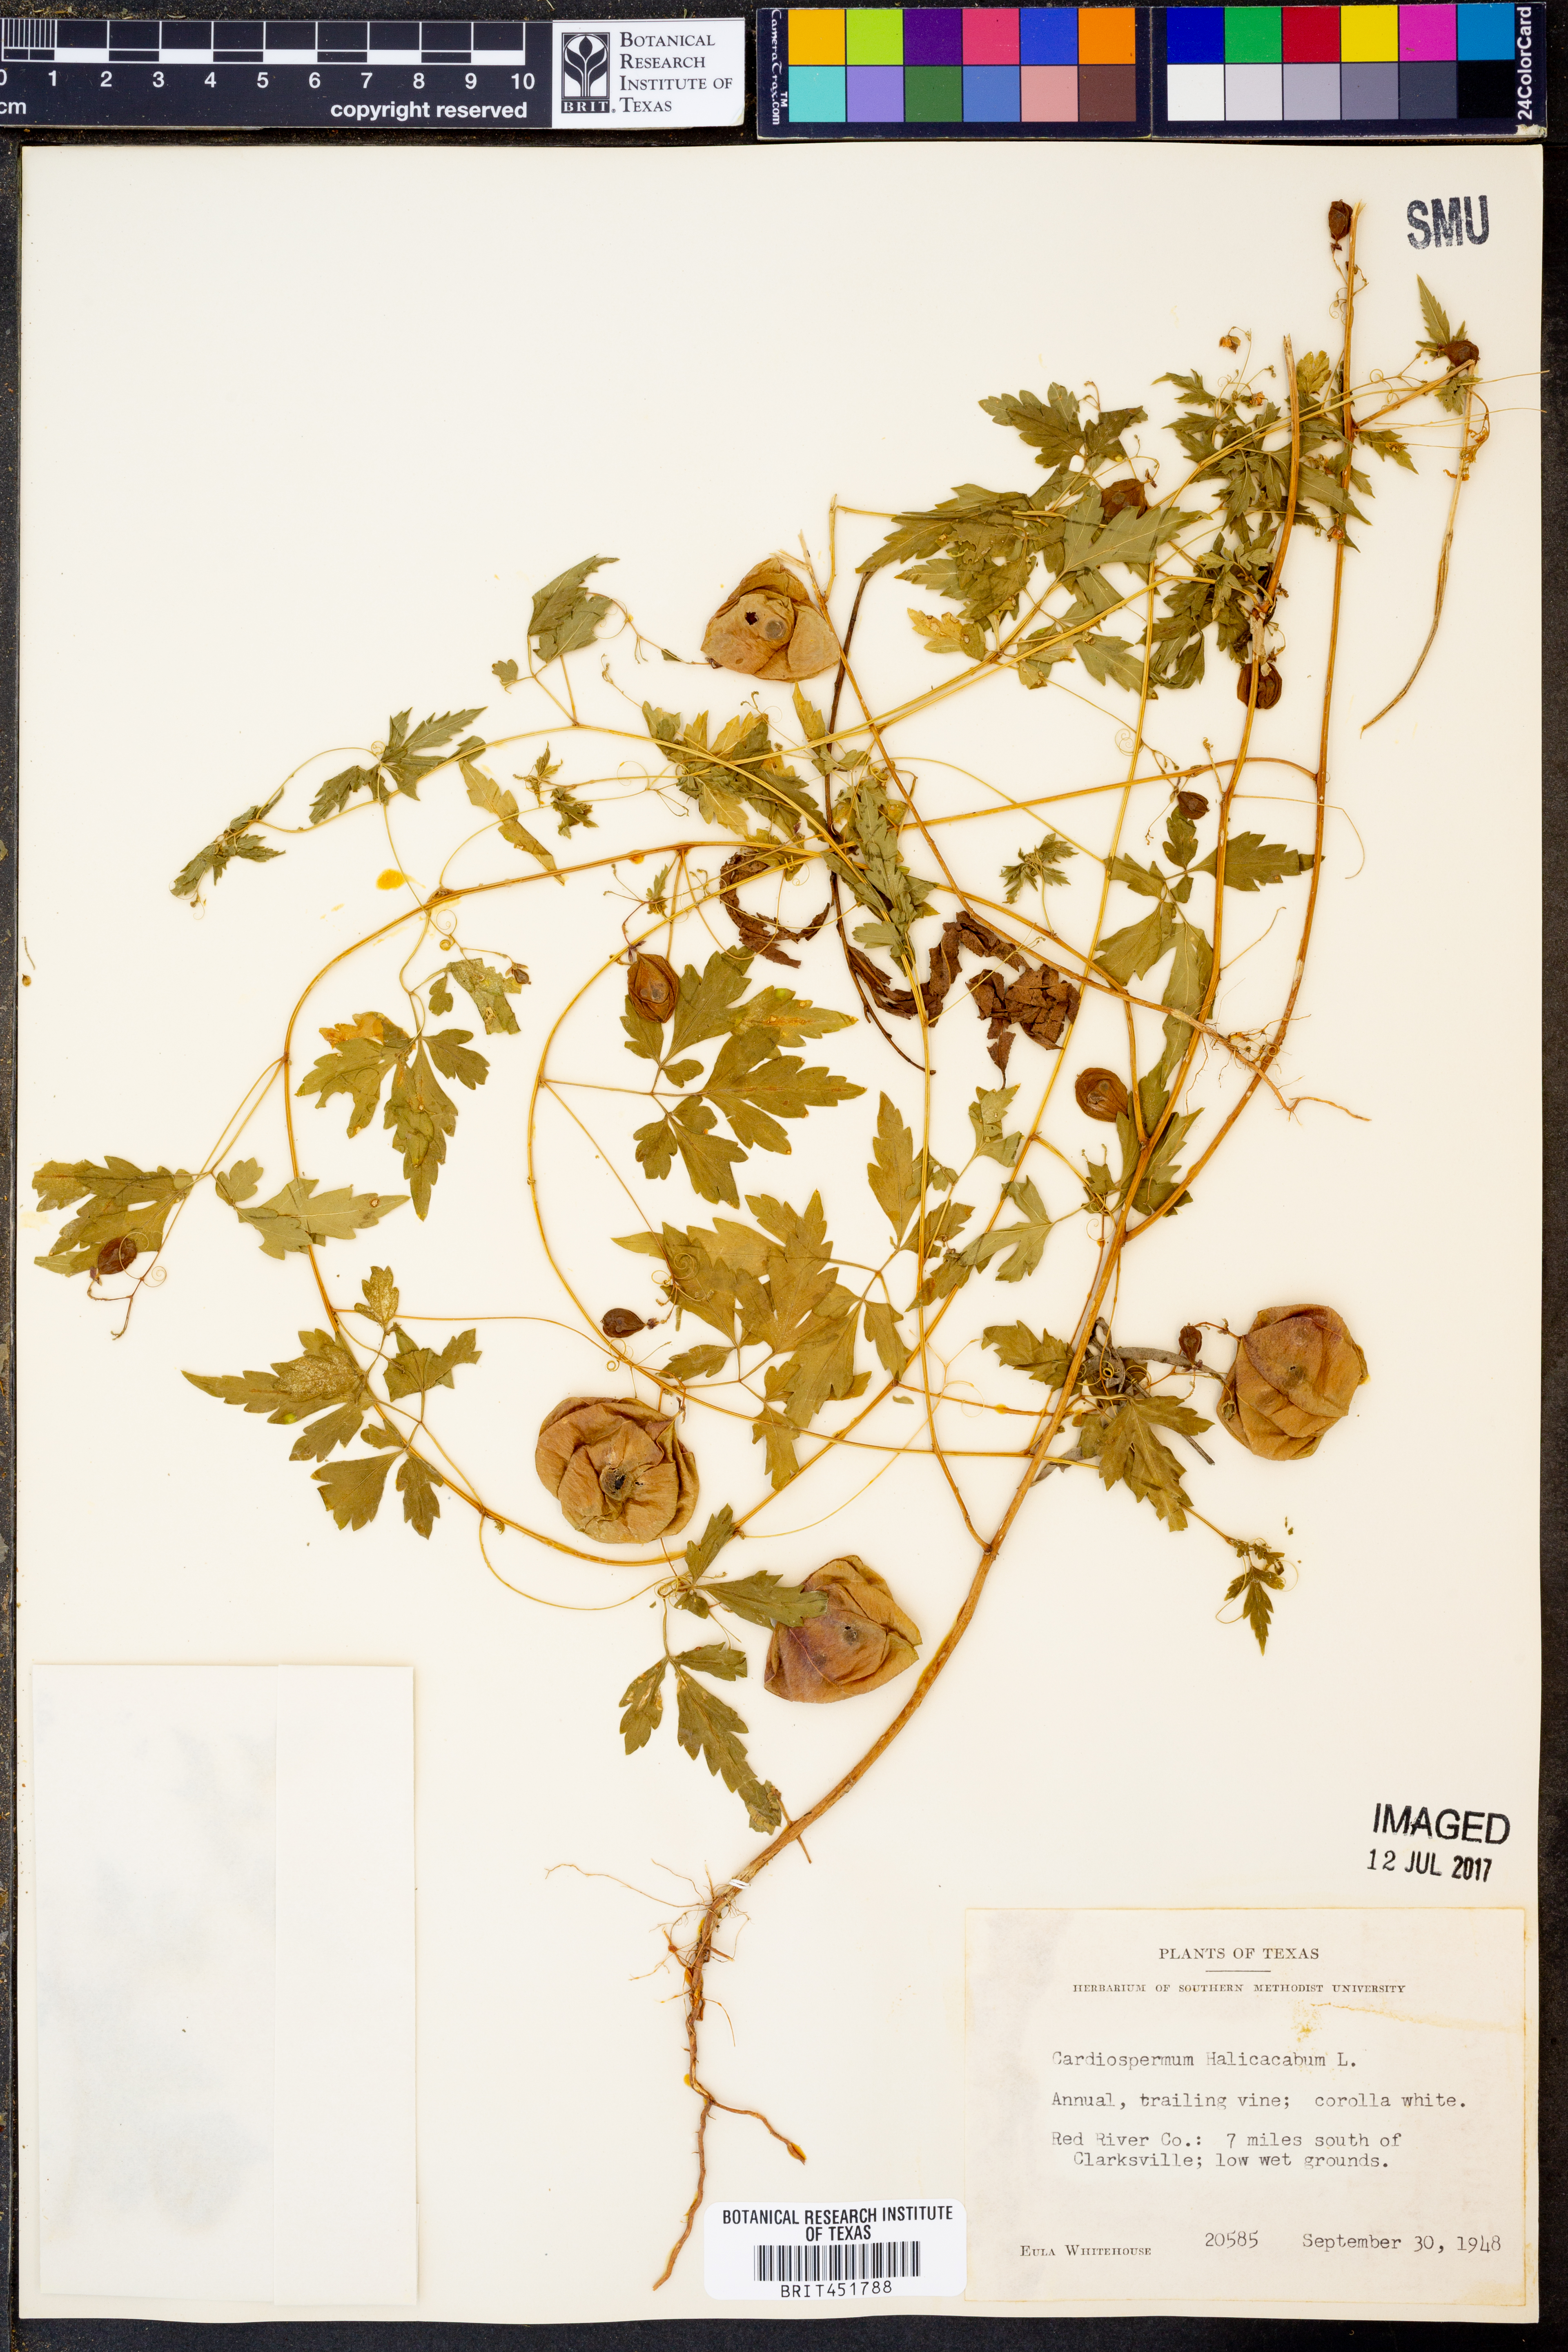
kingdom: Plantae
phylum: Tracheophyta
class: Magnoliopsida
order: Sapindales
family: Sapindaceae
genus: Cardiospermum
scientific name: Cardiospermum halicacabum
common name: Balloon vine
